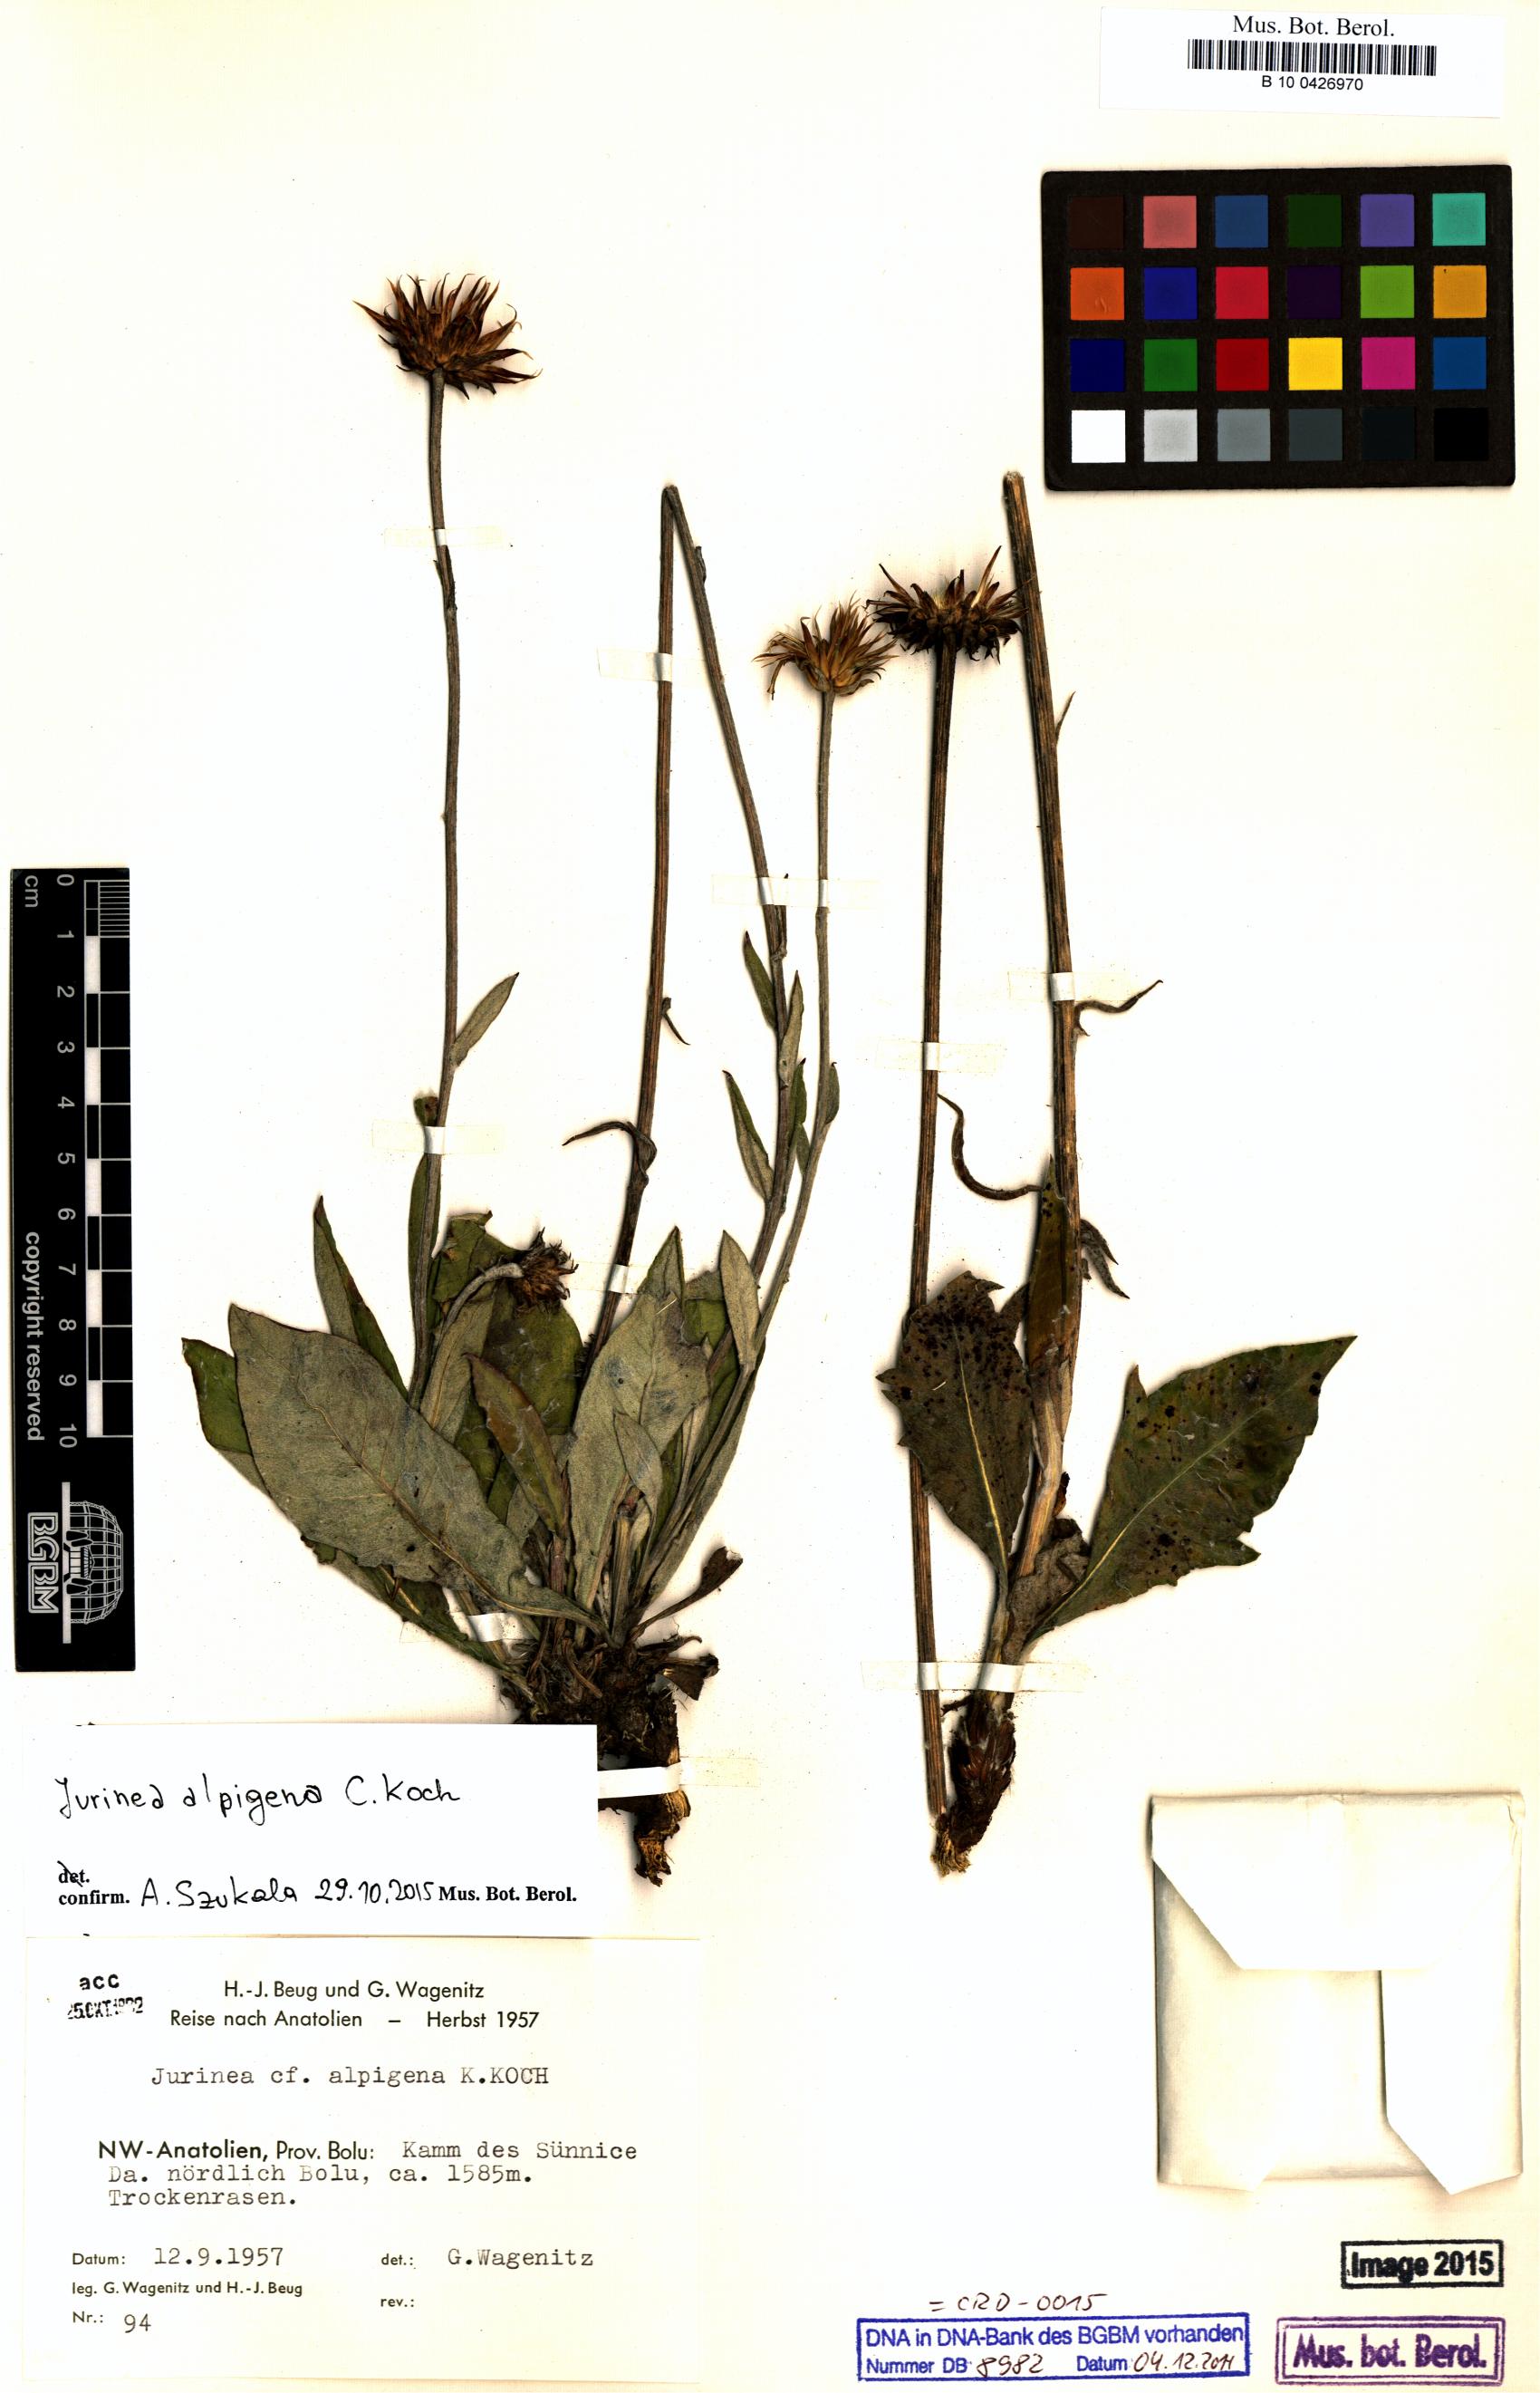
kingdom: Plantae
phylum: Tracheophyta
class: Magnoliopsida
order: Asterales
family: Asteraceae
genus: Jurinea
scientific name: Jurinea alpigena
